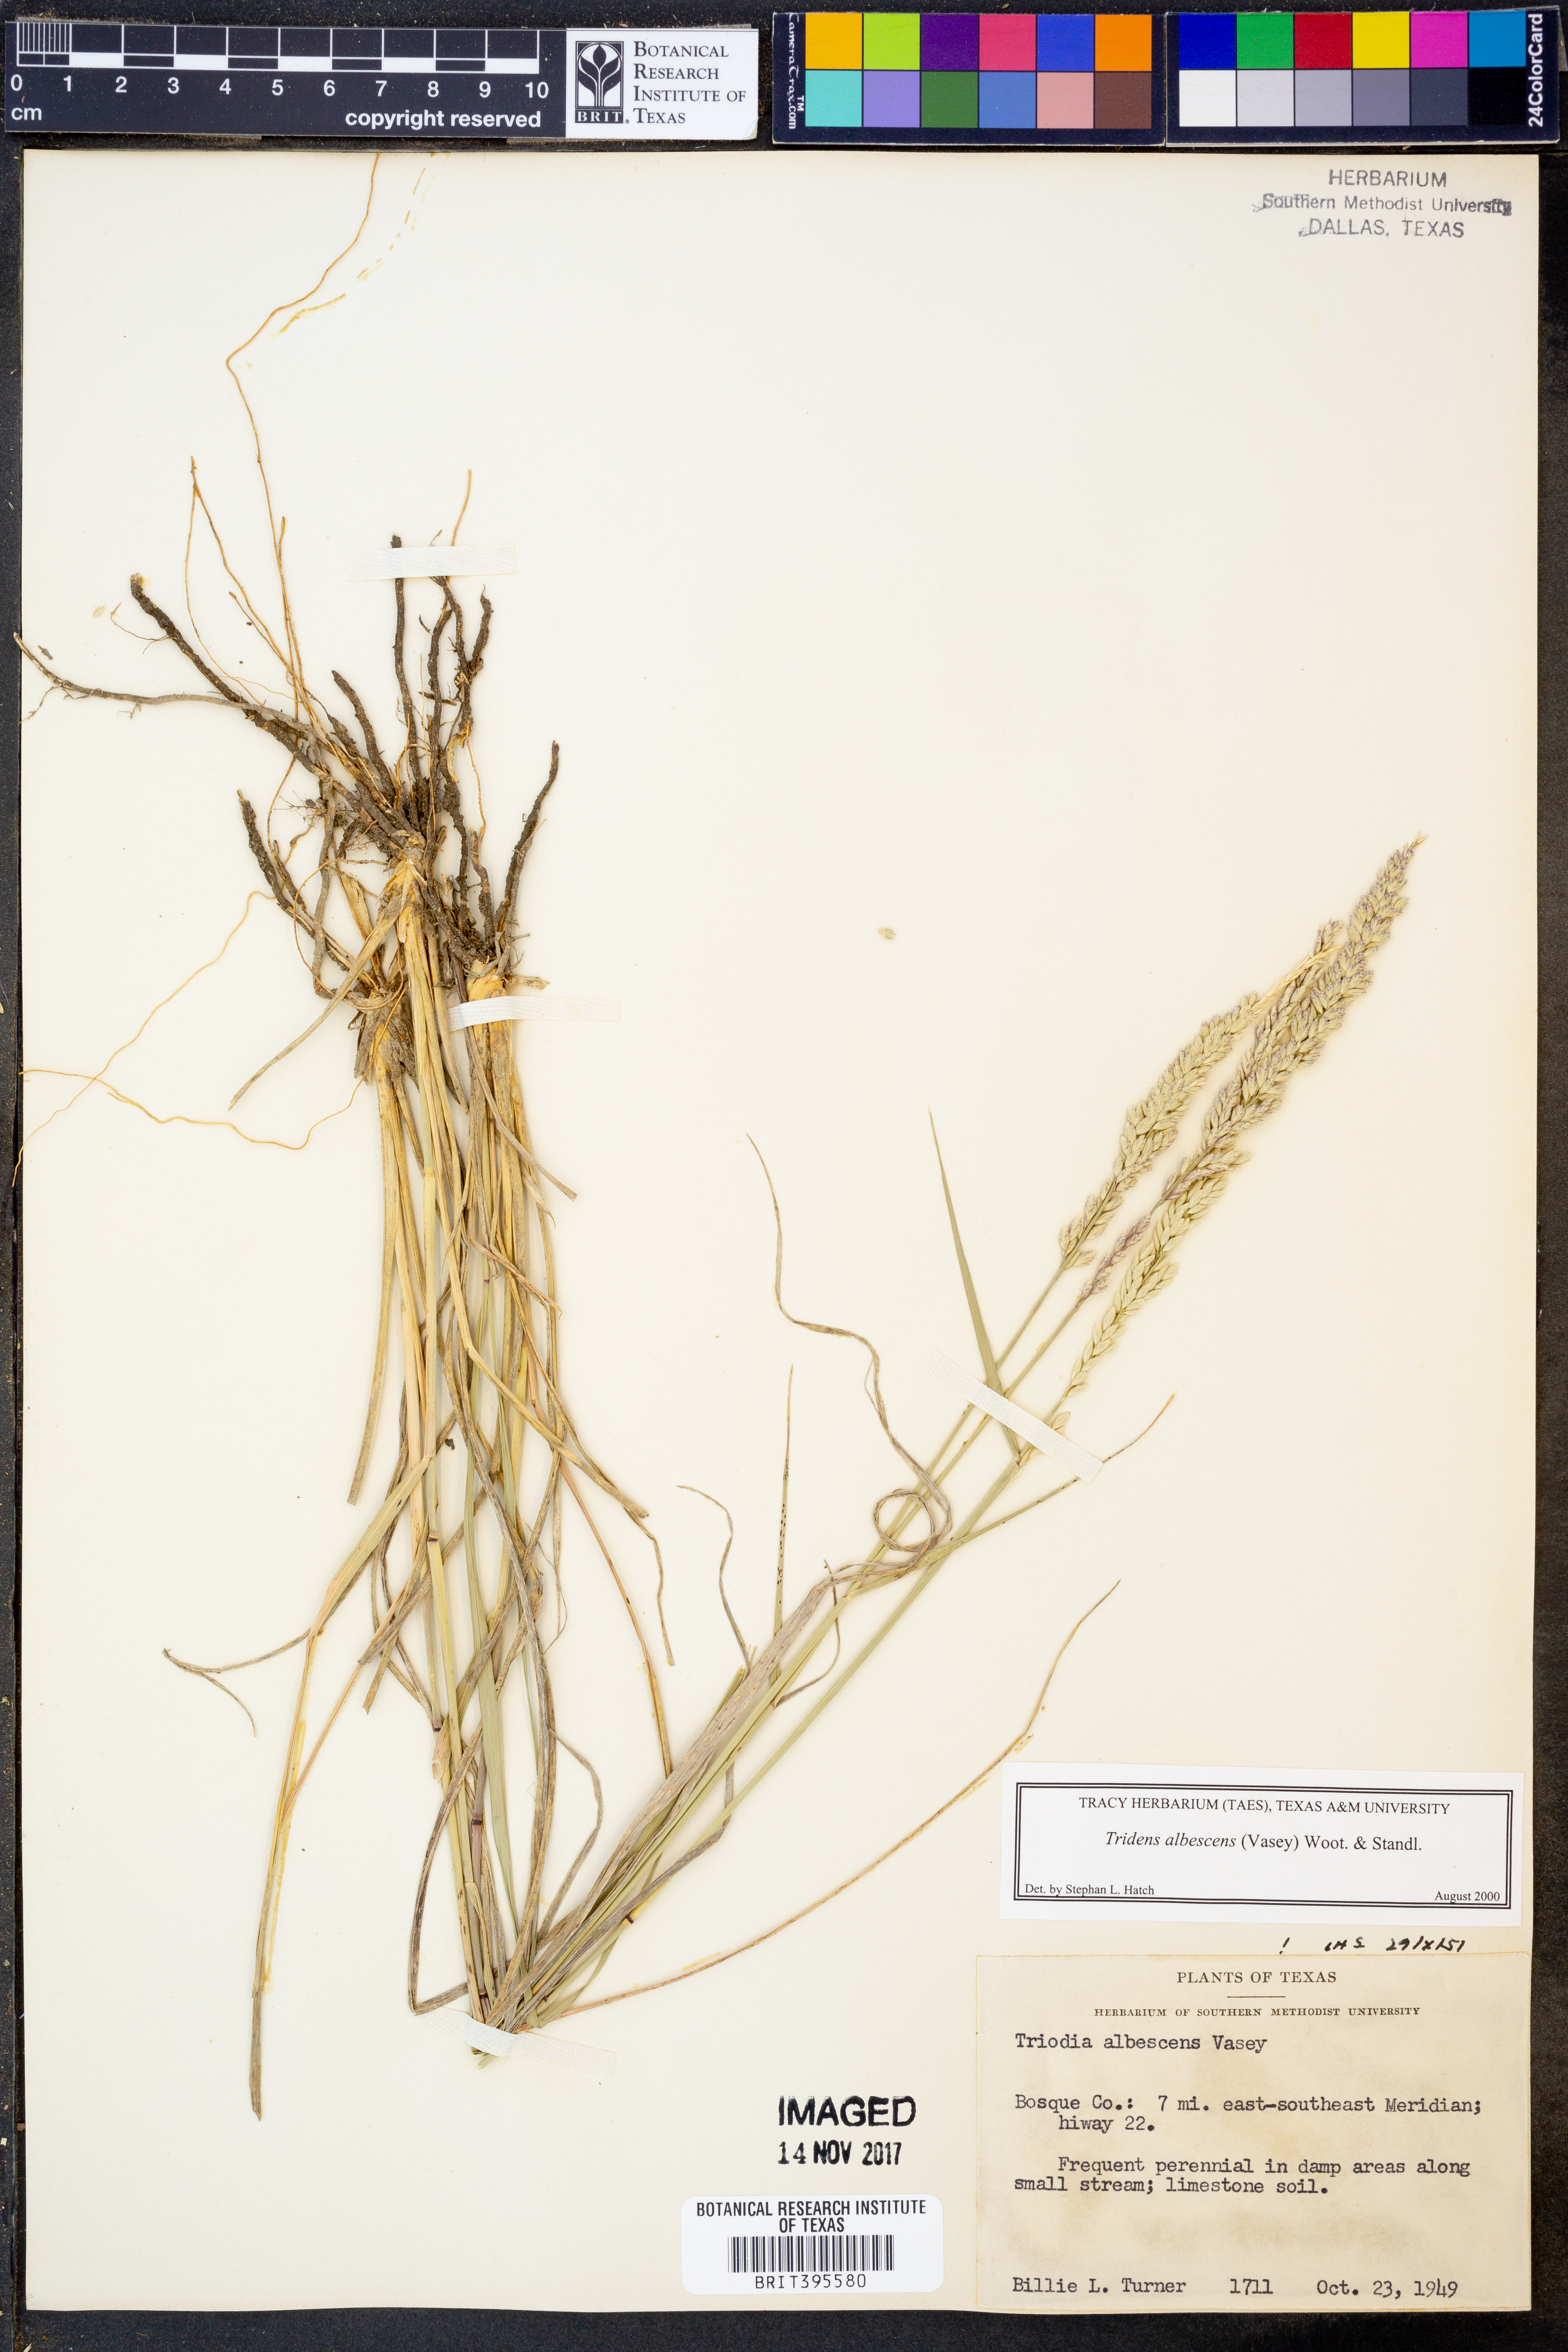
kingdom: Plantae
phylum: Tracheophyta
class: Liliopsida
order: Poales
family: Poaceae
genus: Tridens
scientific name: Tridens albescens
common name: White tridens
